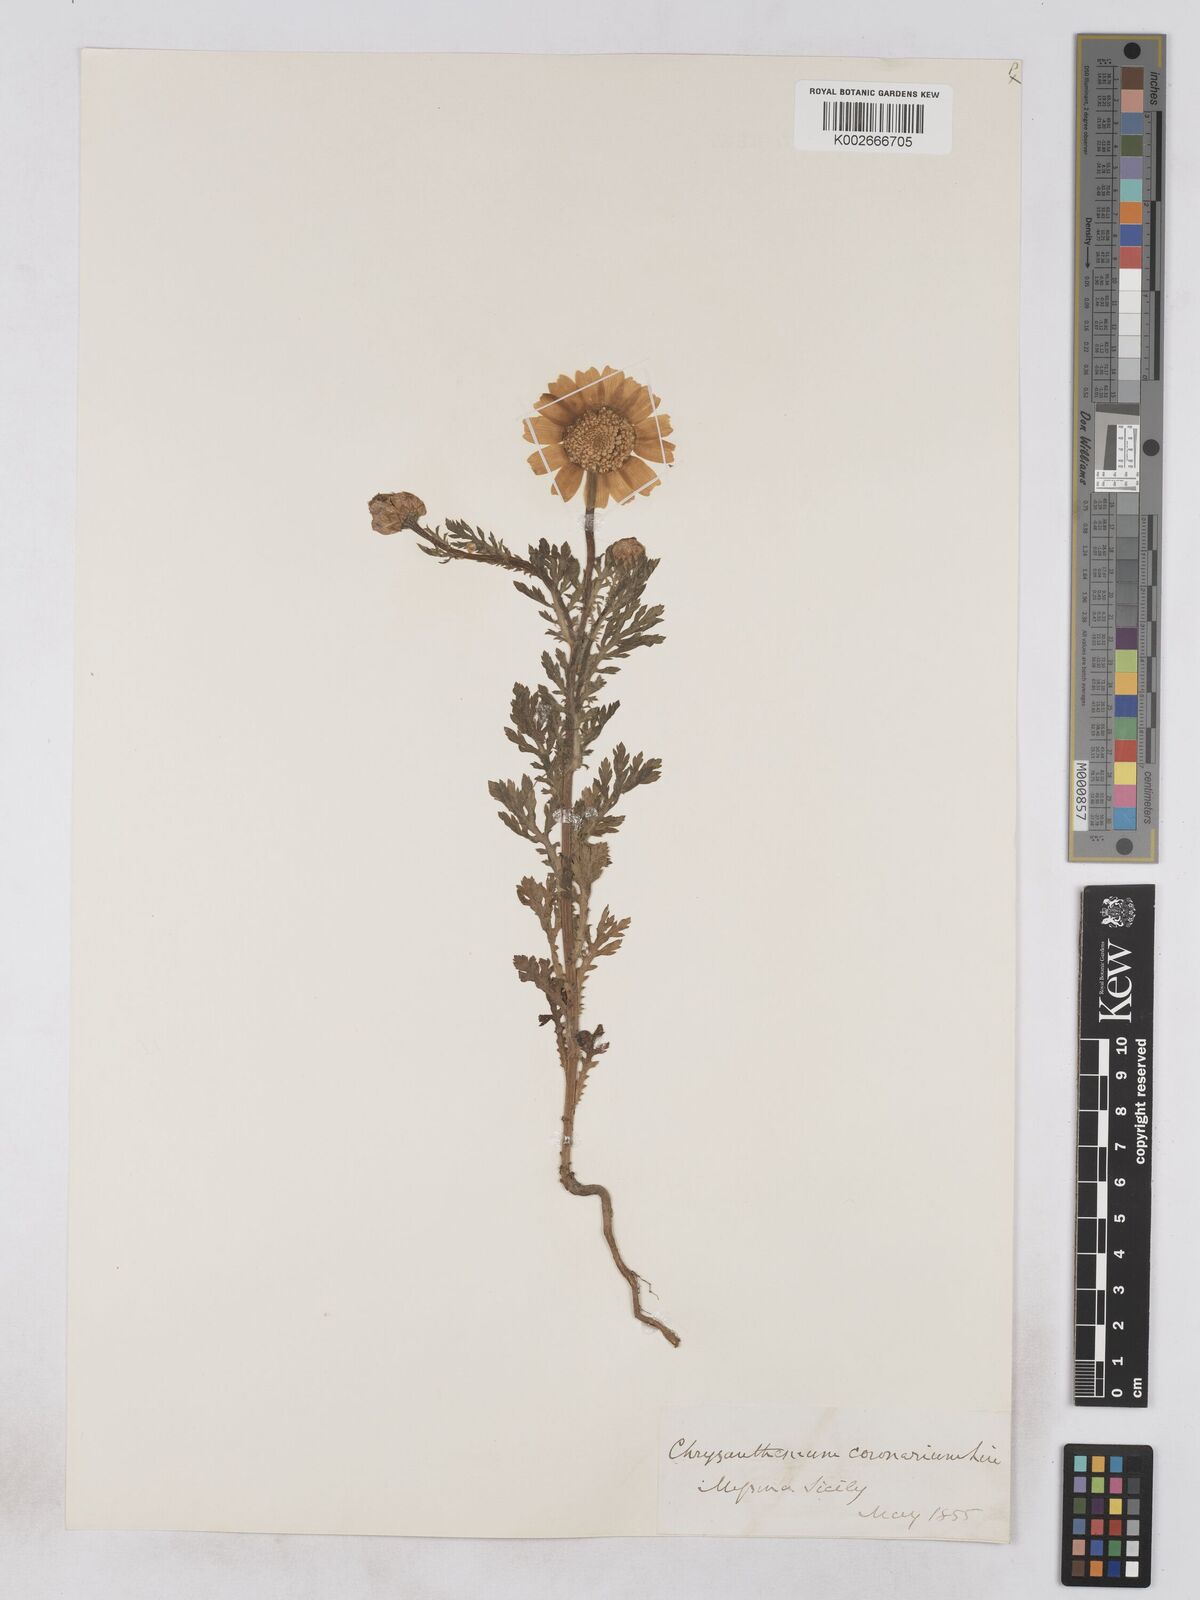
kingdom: Plantae
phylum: Tracheophyta
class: Magnoliopsida
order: Asterales
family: Asteraceae
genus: Glebionis
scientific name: Glebionis coronaria
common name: Crowndaisy
